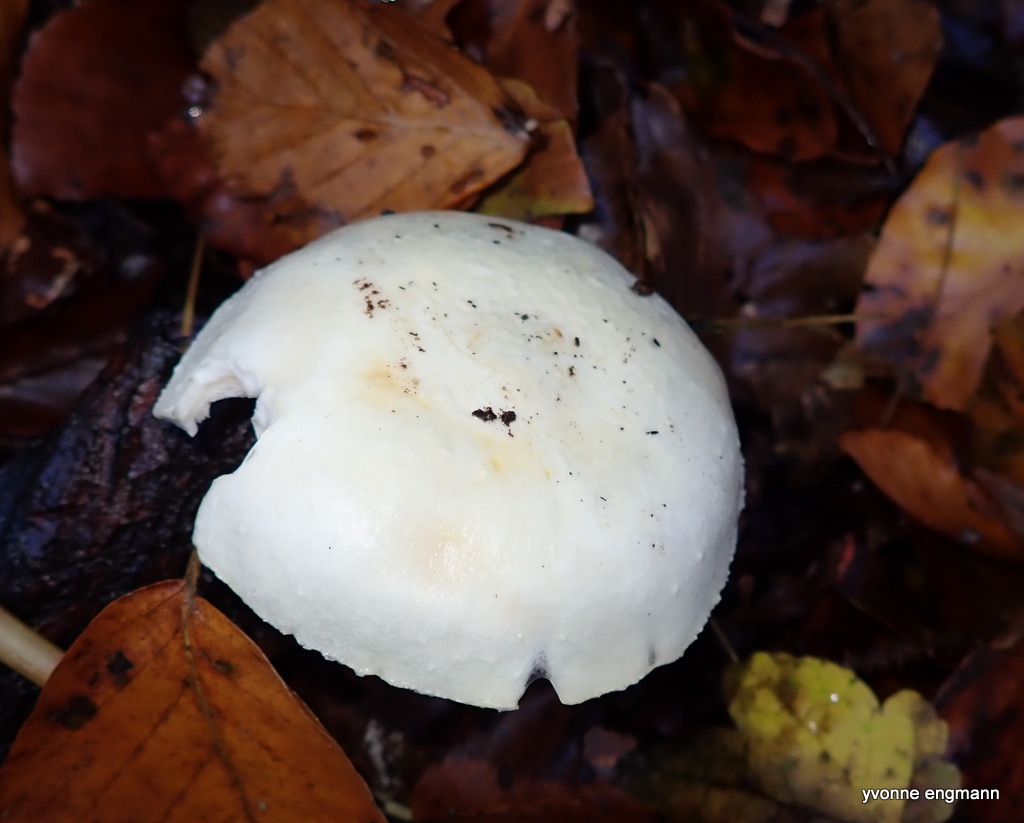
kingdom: Fungi
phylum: Basidiomycota
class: Agaricomycetes
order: Agaricales
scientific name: Agaricales
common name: champignonordenen
